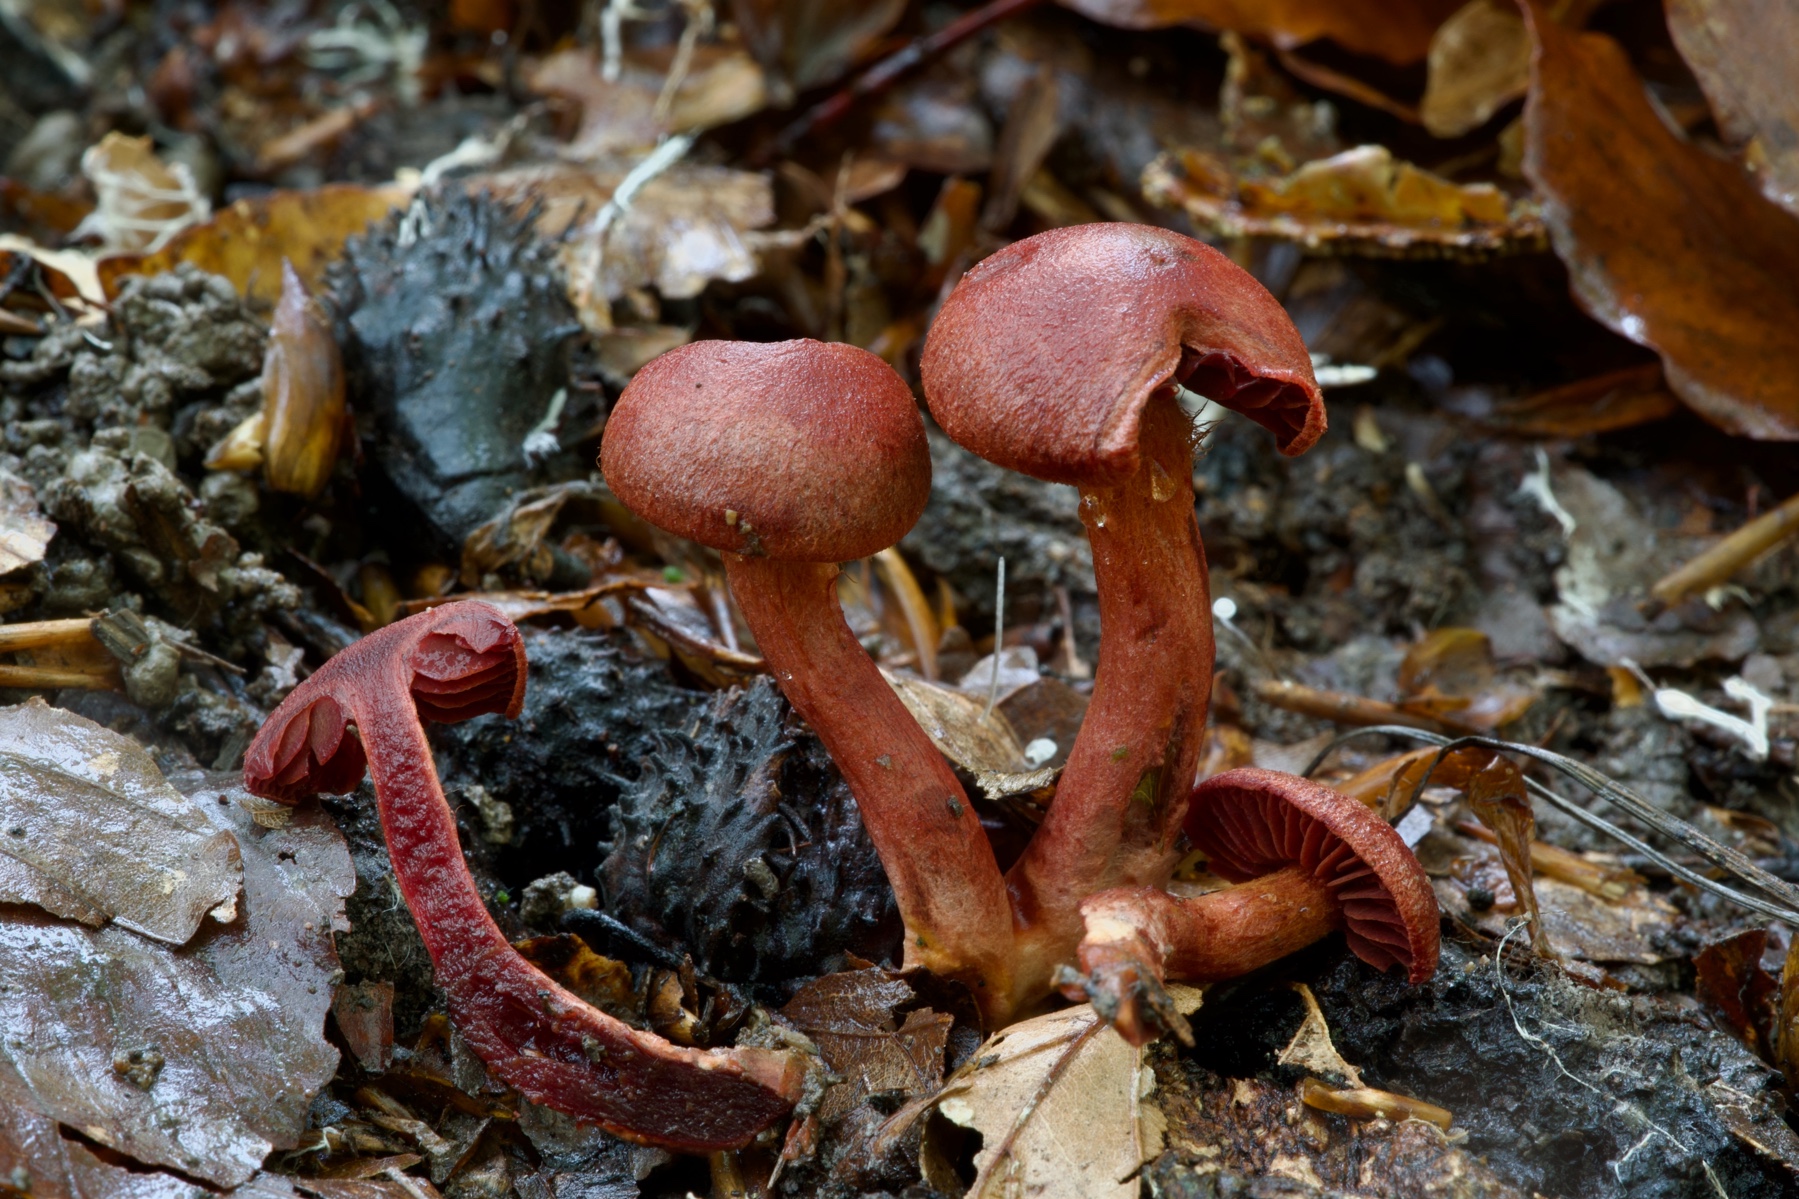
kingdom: Fungi
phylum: Basidiomycota
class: Agaricomycetes
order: Agaricales
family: Cortinariaceae
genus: Cortinarius
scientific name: Cortinarius sanguineus
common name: Bloodred webcap
